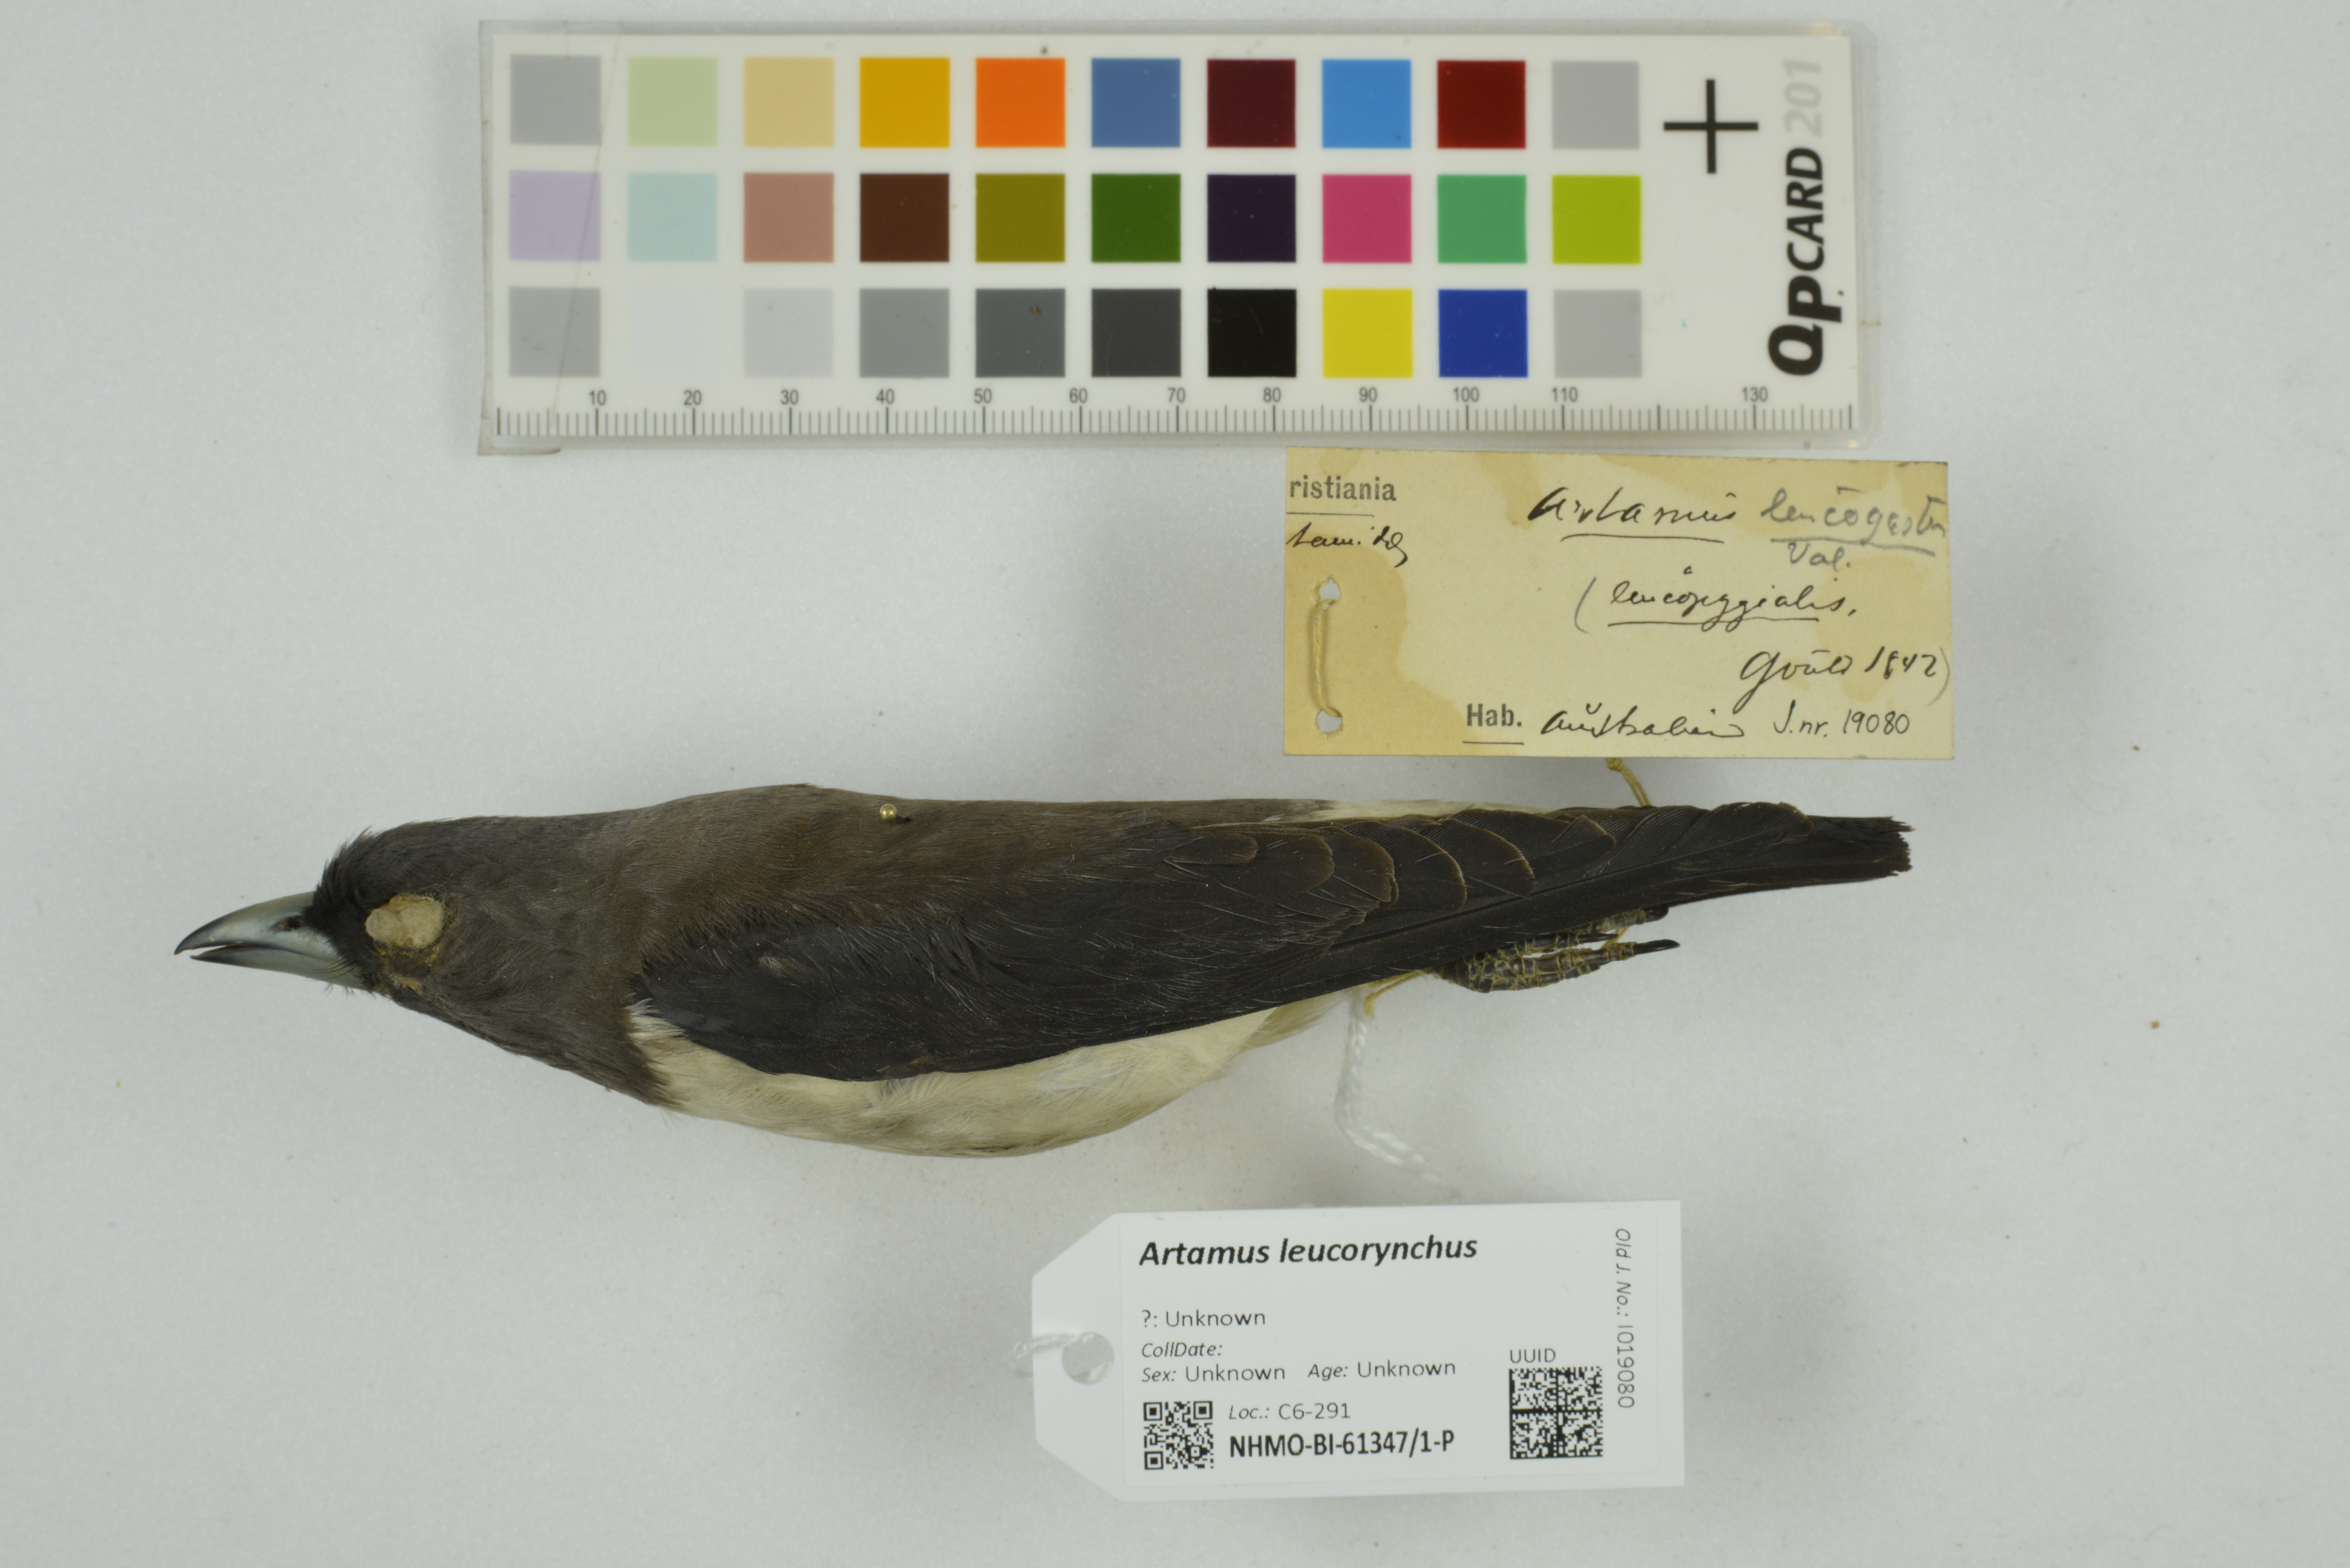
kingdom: Animalia
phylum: Chordata
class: Aves
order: Passeriformes
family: Artamidae
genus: Artamus
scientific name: Artamus leucoryn
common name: White-breasted woodswallow
